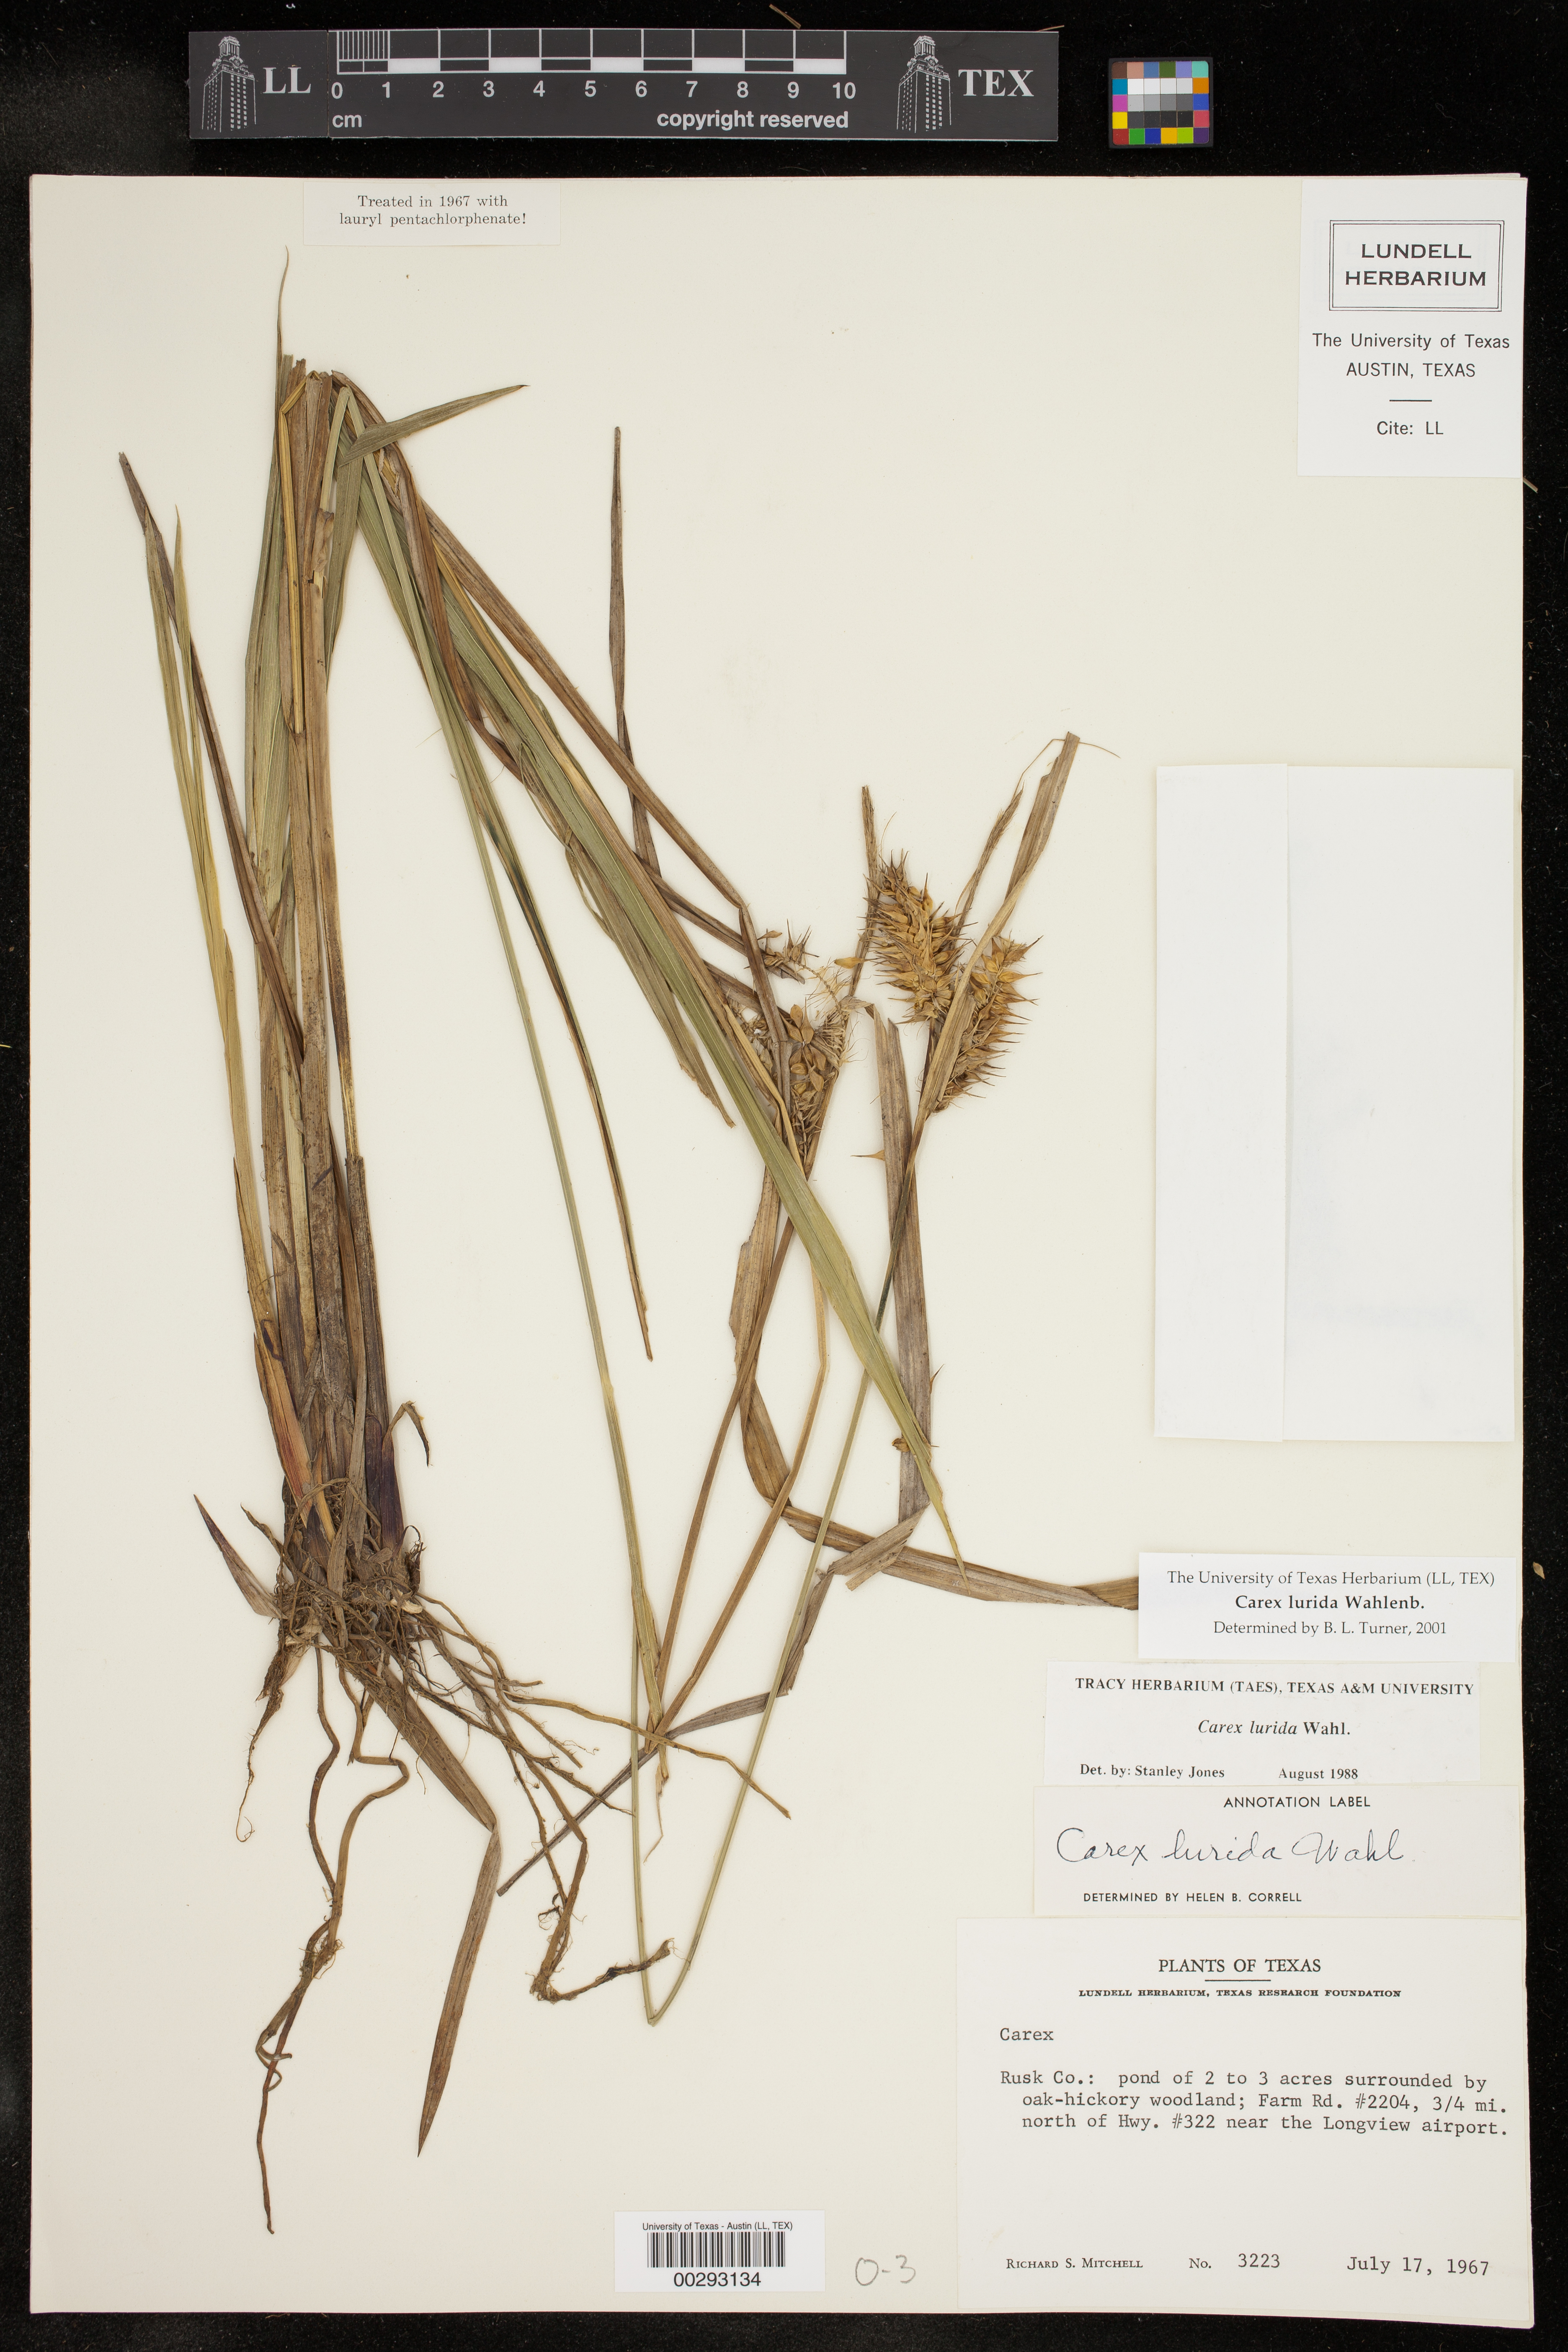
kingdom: Plantae
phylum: Tracheophyta
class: Liliopsida
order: Poales
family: Cyperaceae
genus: Carex
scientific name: Carex lurida
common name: Sallow sedge
